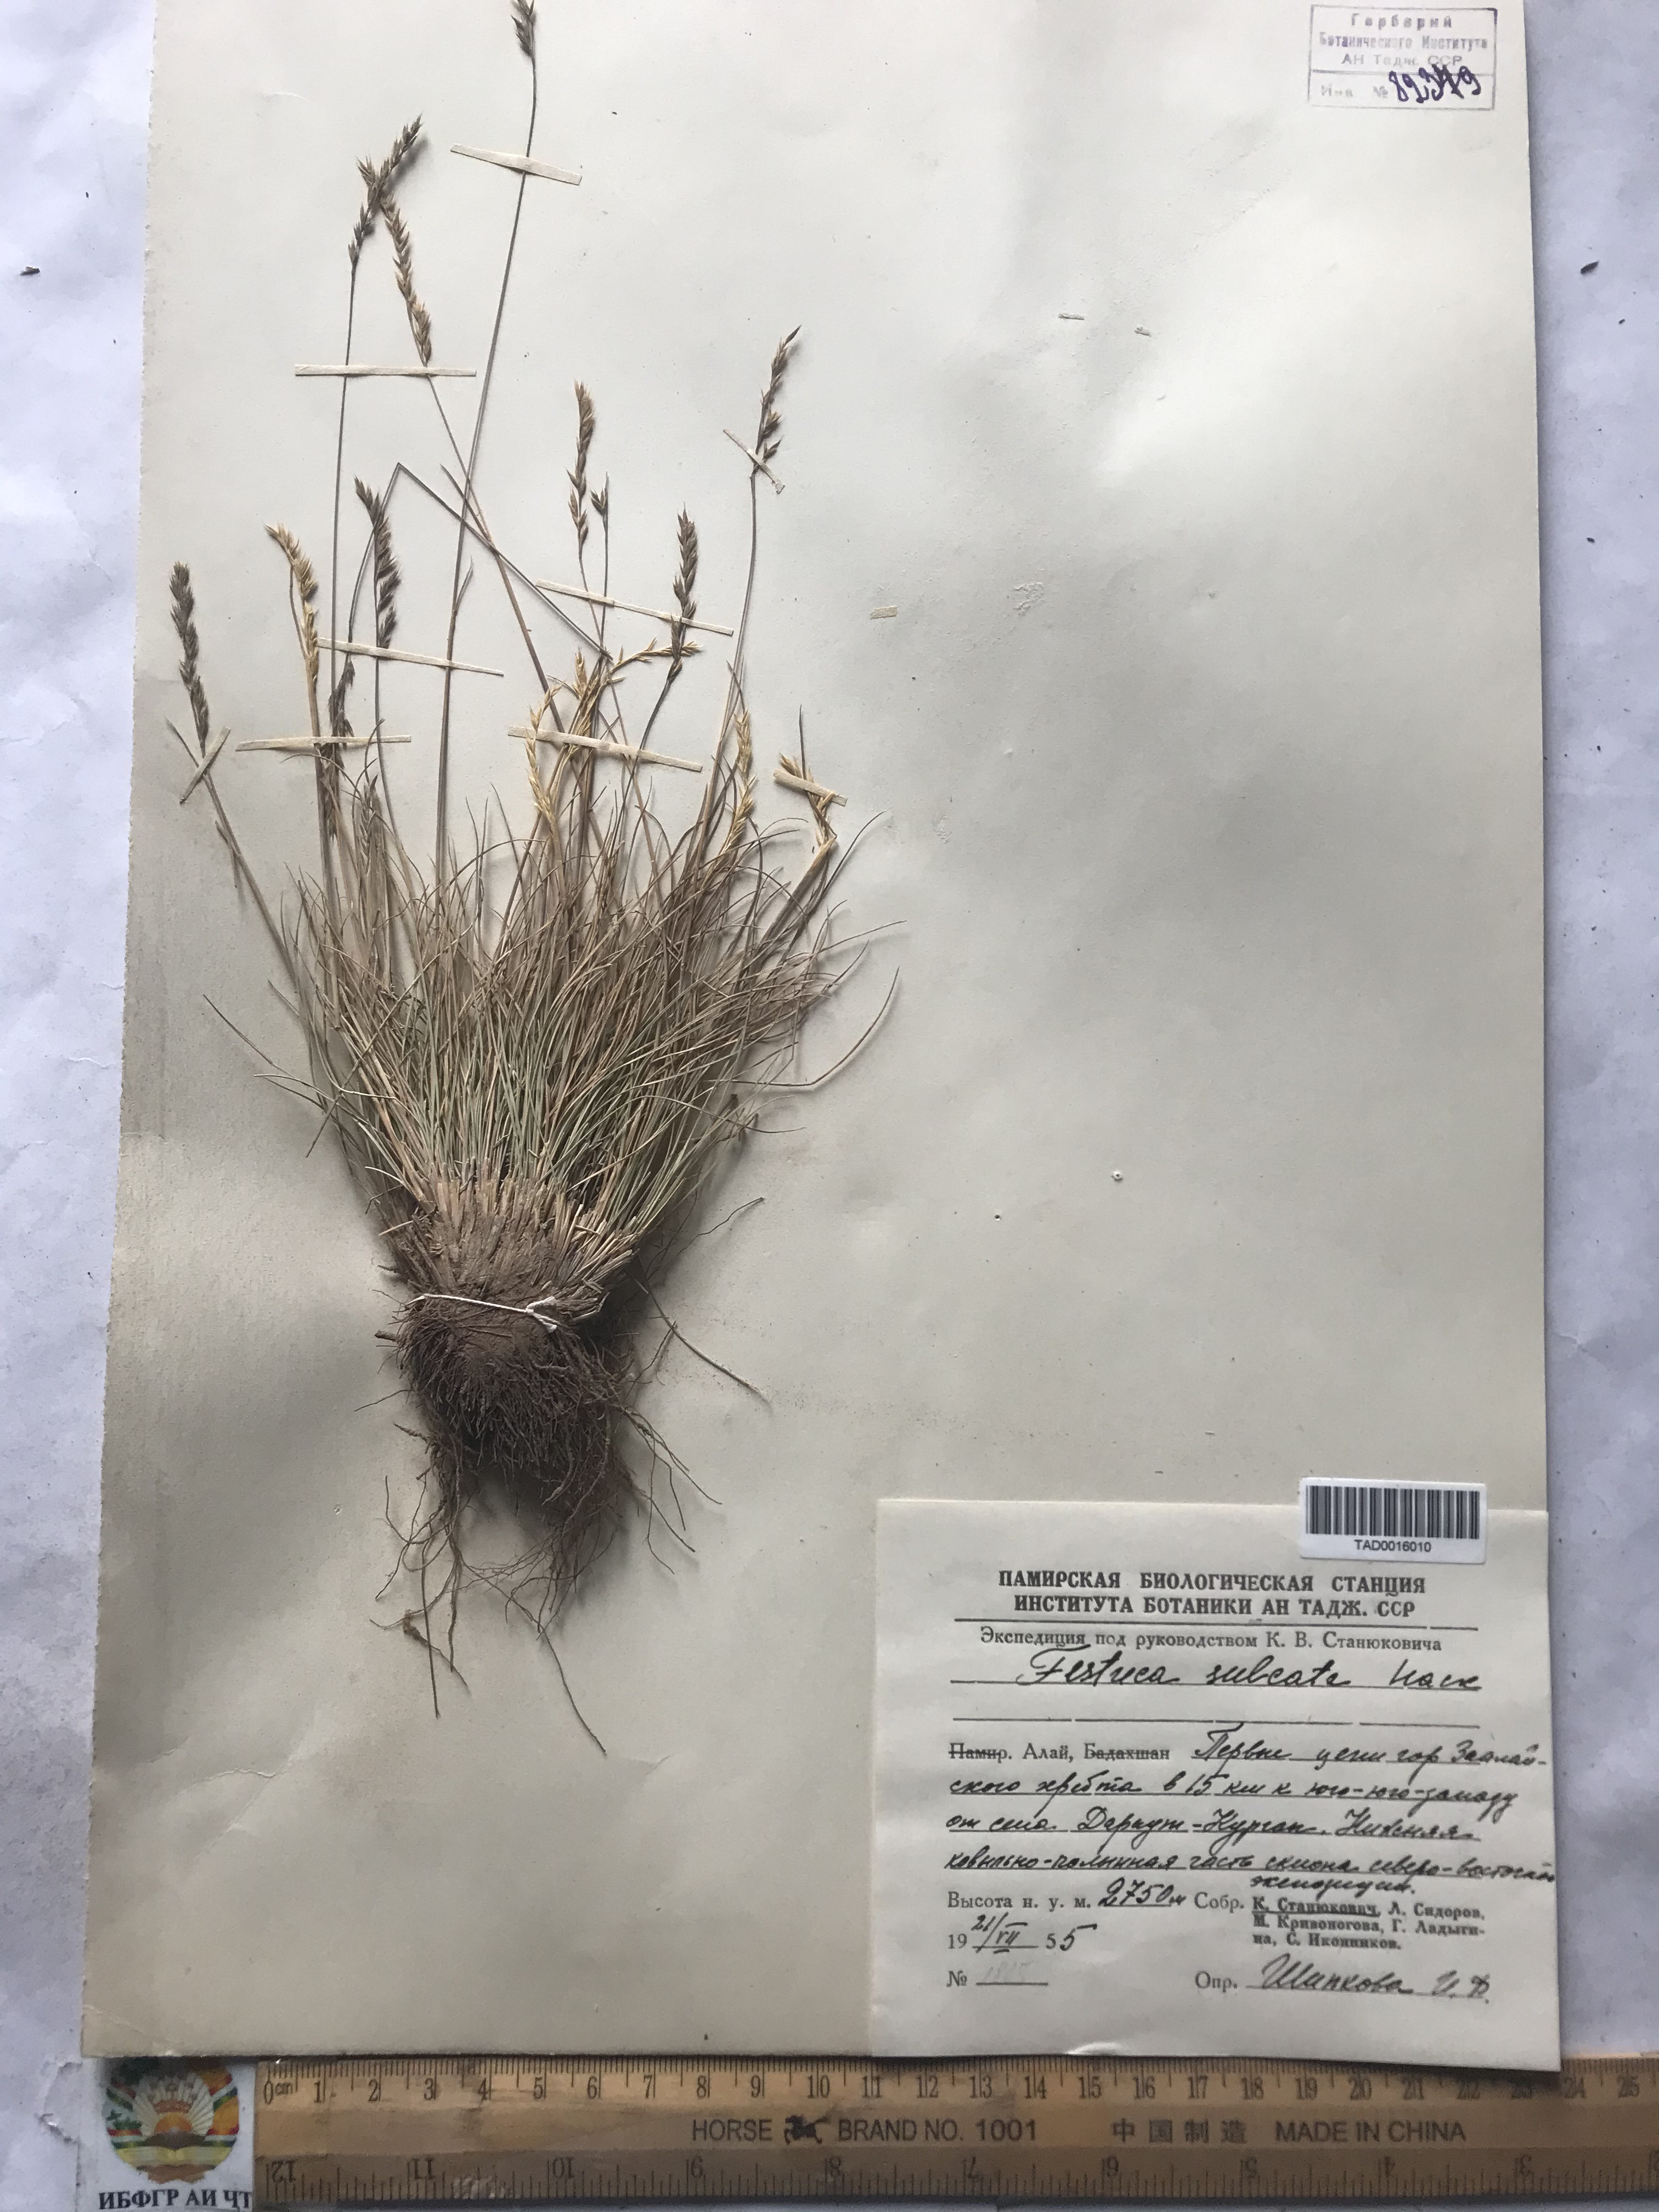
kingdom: Plantae
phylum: Tracheophyta
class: Liliopsida
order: Poales
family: Poaceae
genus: Festuca
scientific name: Festuca sulcata
